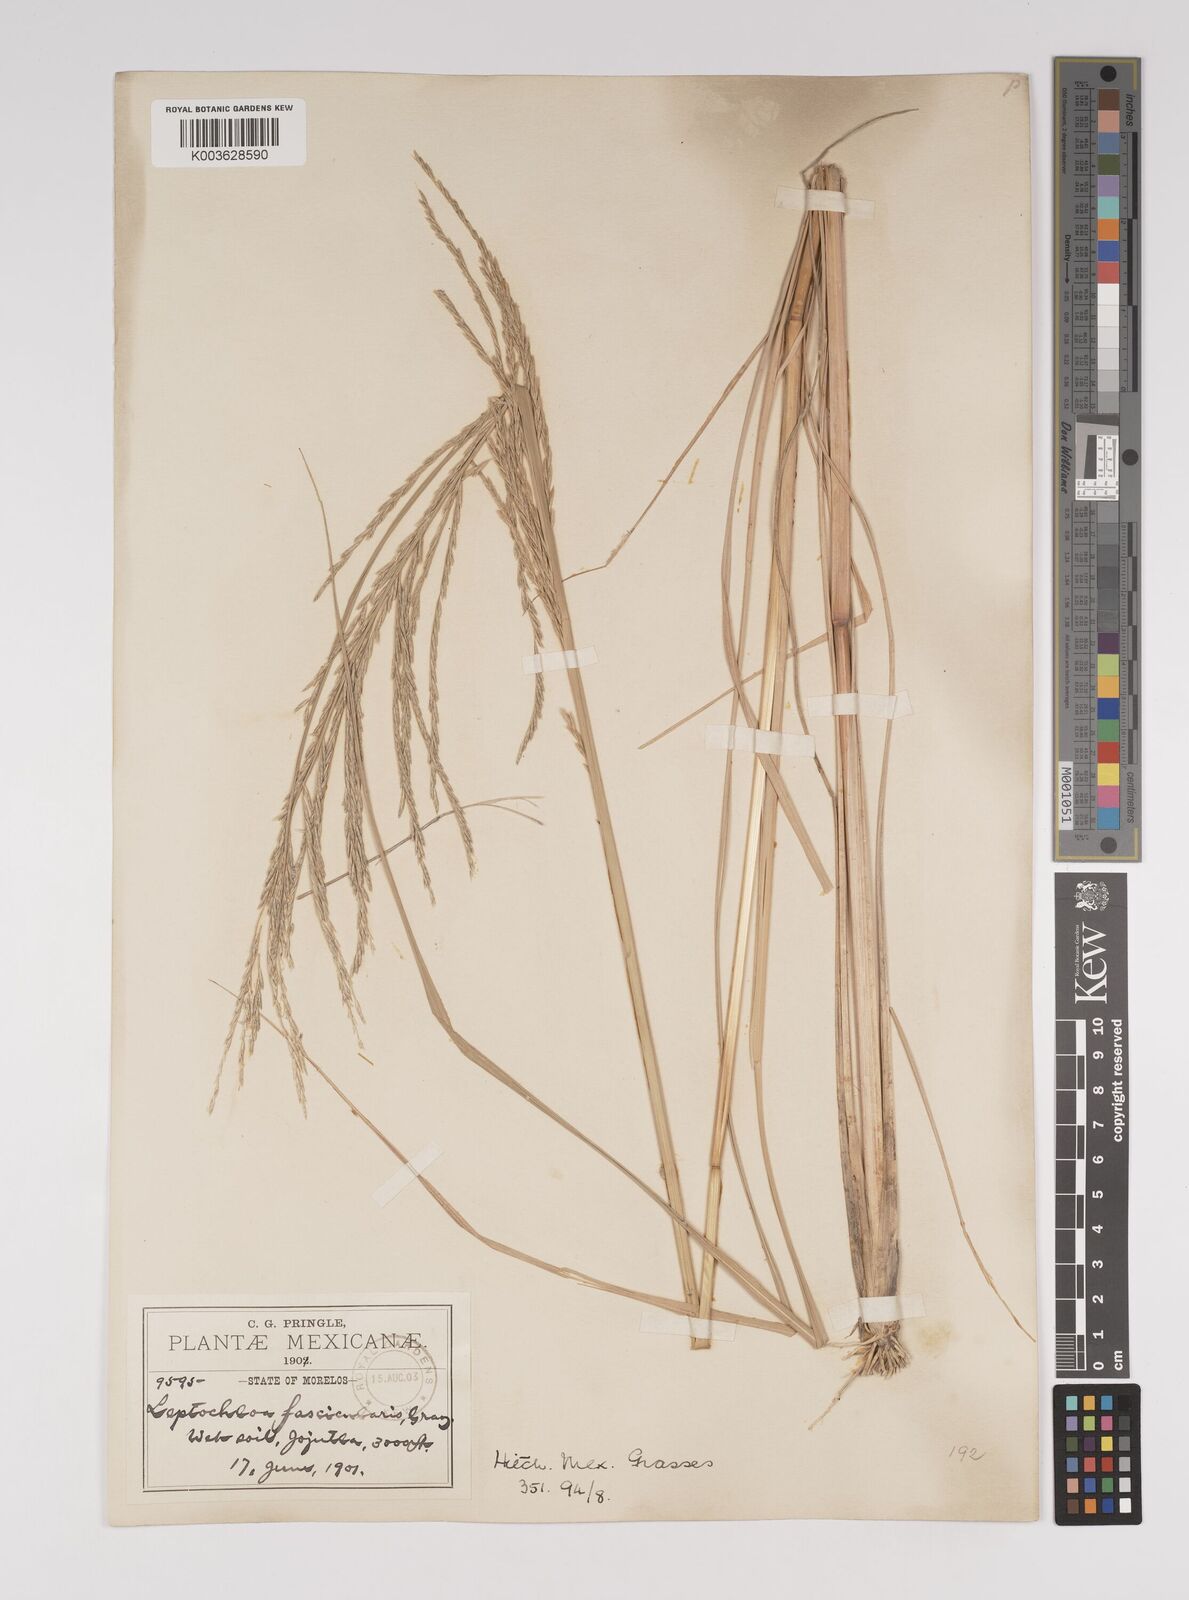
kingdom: Plantae
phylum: Tracheophyta
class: Liliopsida
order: Poales
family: Poaceae
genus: Diplachne
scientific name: Diplachne fusca
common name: Brown beetle grass
